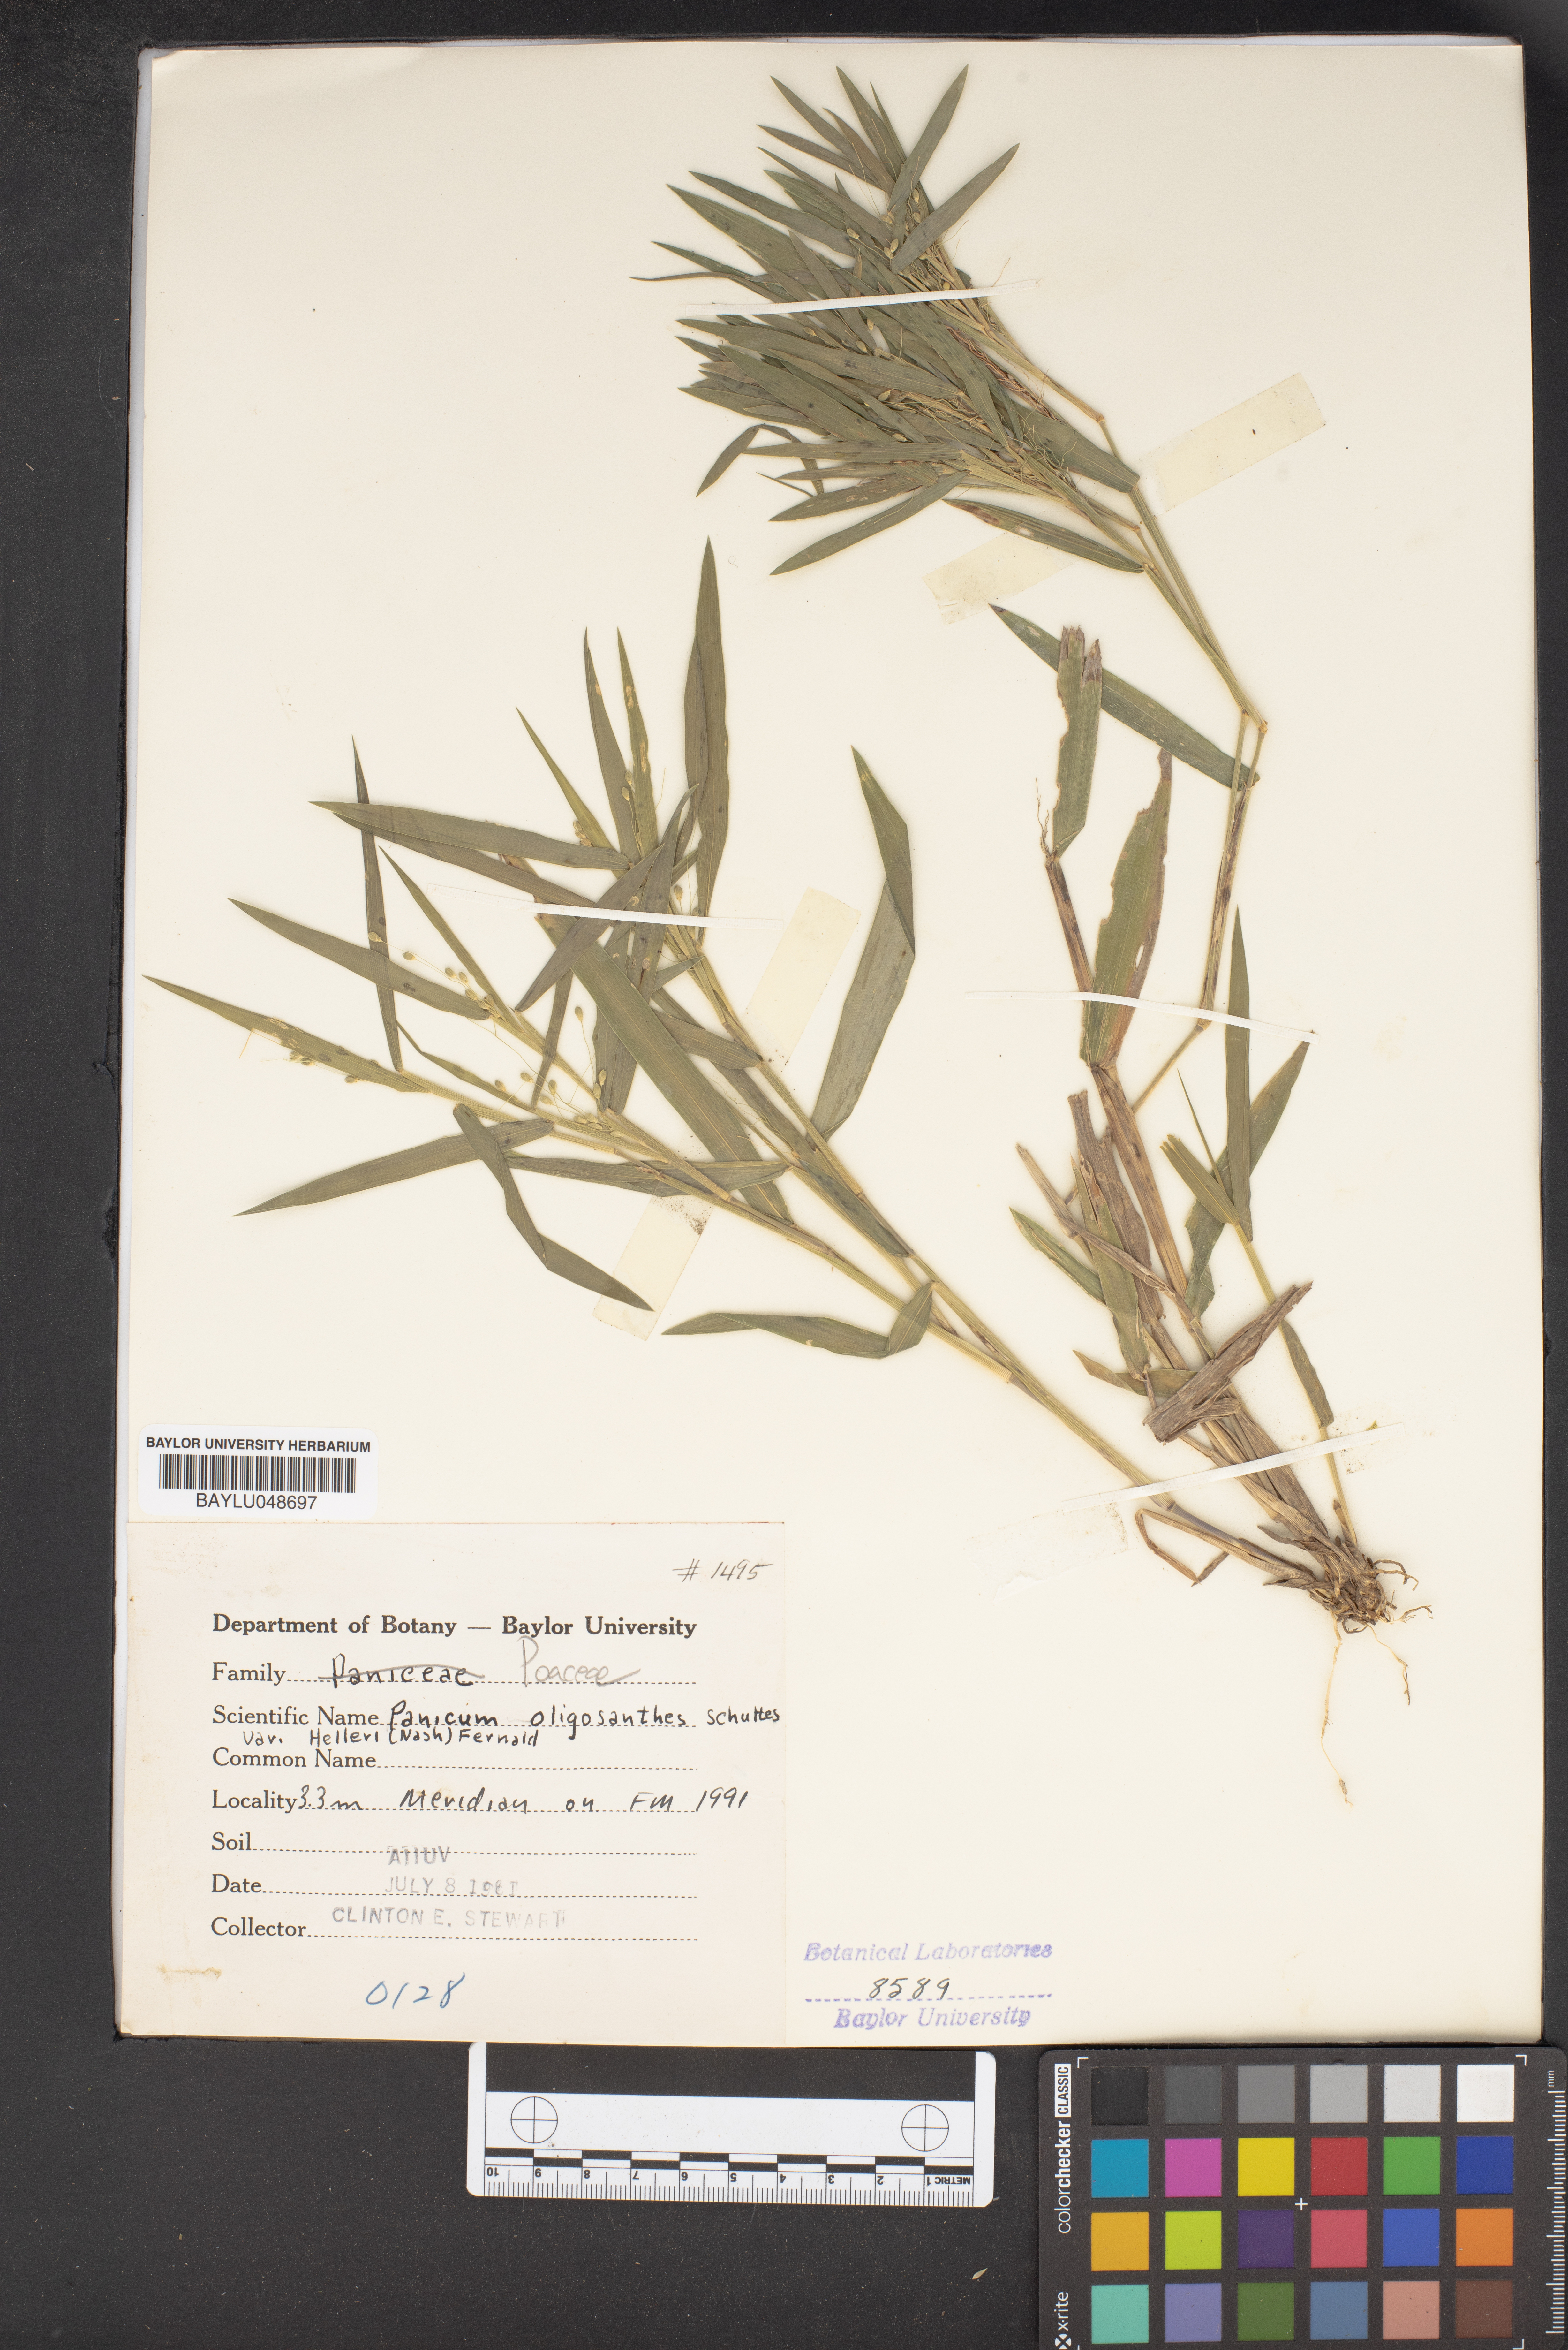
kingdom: Plantae
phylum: Tracheophyta
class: Liliopsida
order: Poales
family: Poaceae
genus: Dichanthelium
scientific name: Dichanthelium oligosanthes
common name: Few-anther obscuregrass
